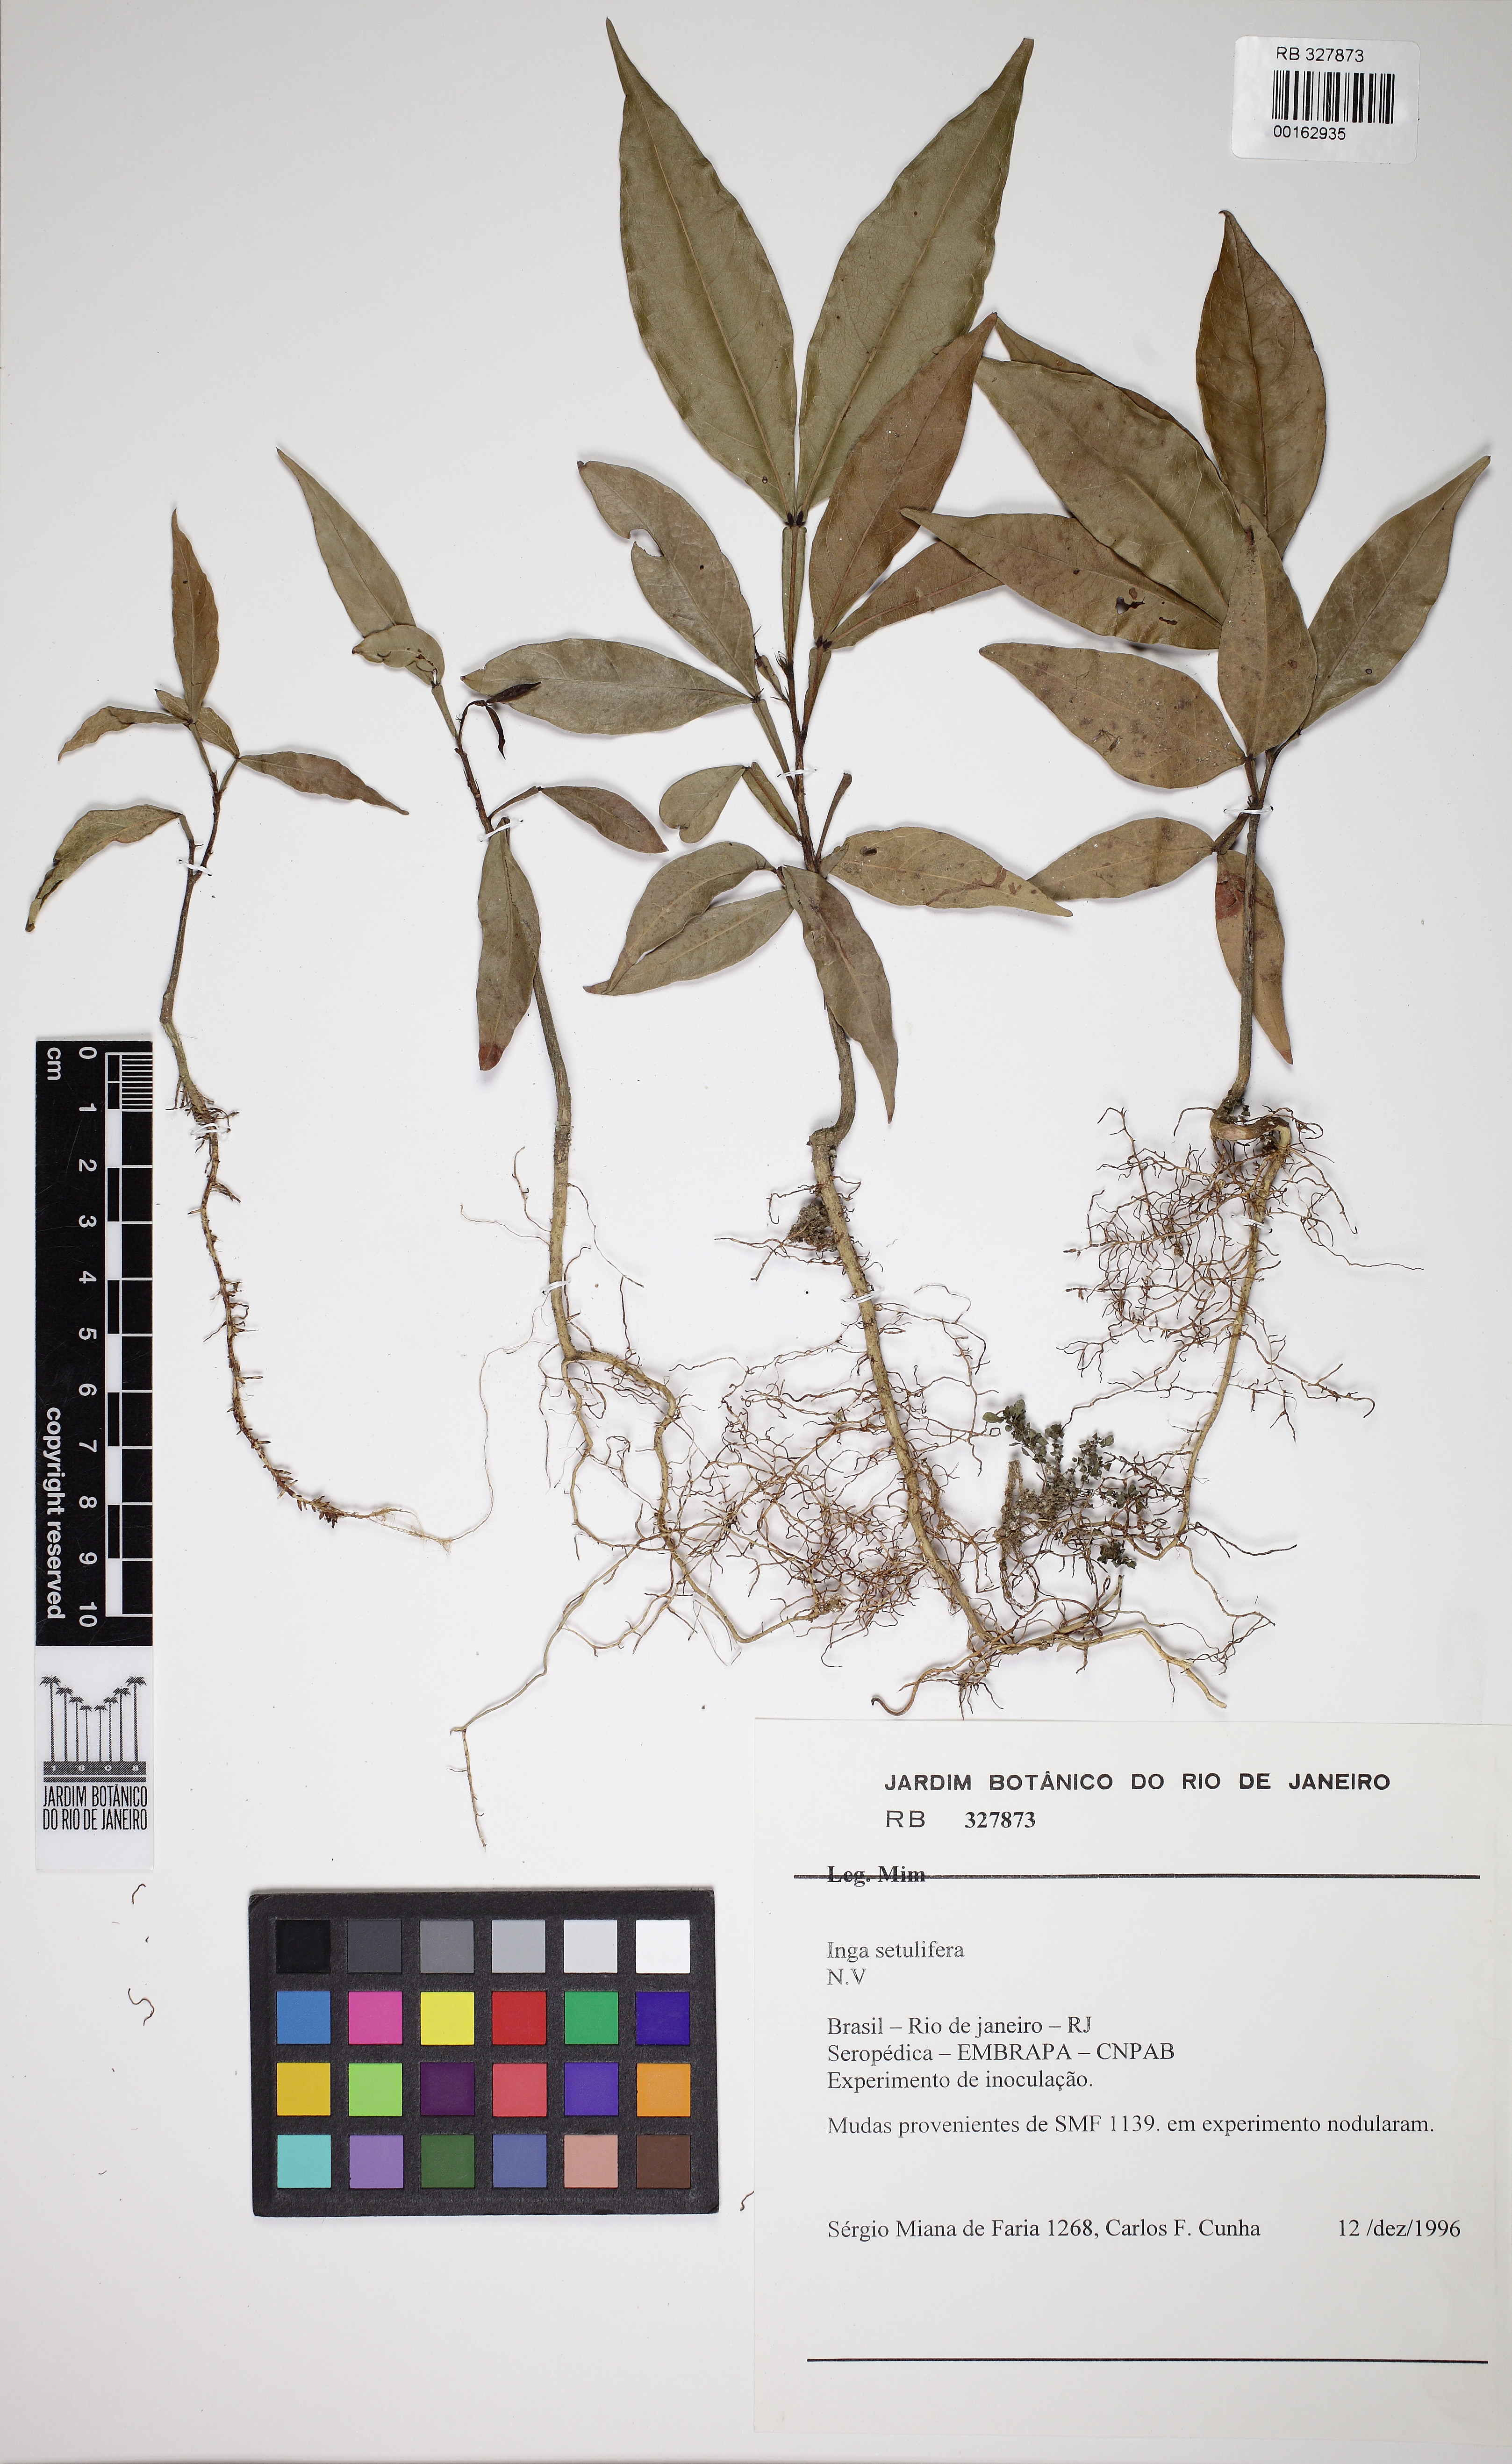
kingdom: Plantae
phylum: Tracheophyta
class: Magnoliopsida
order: Fabales
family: Fabaceae
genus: Inga
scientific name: Inga pilosula
